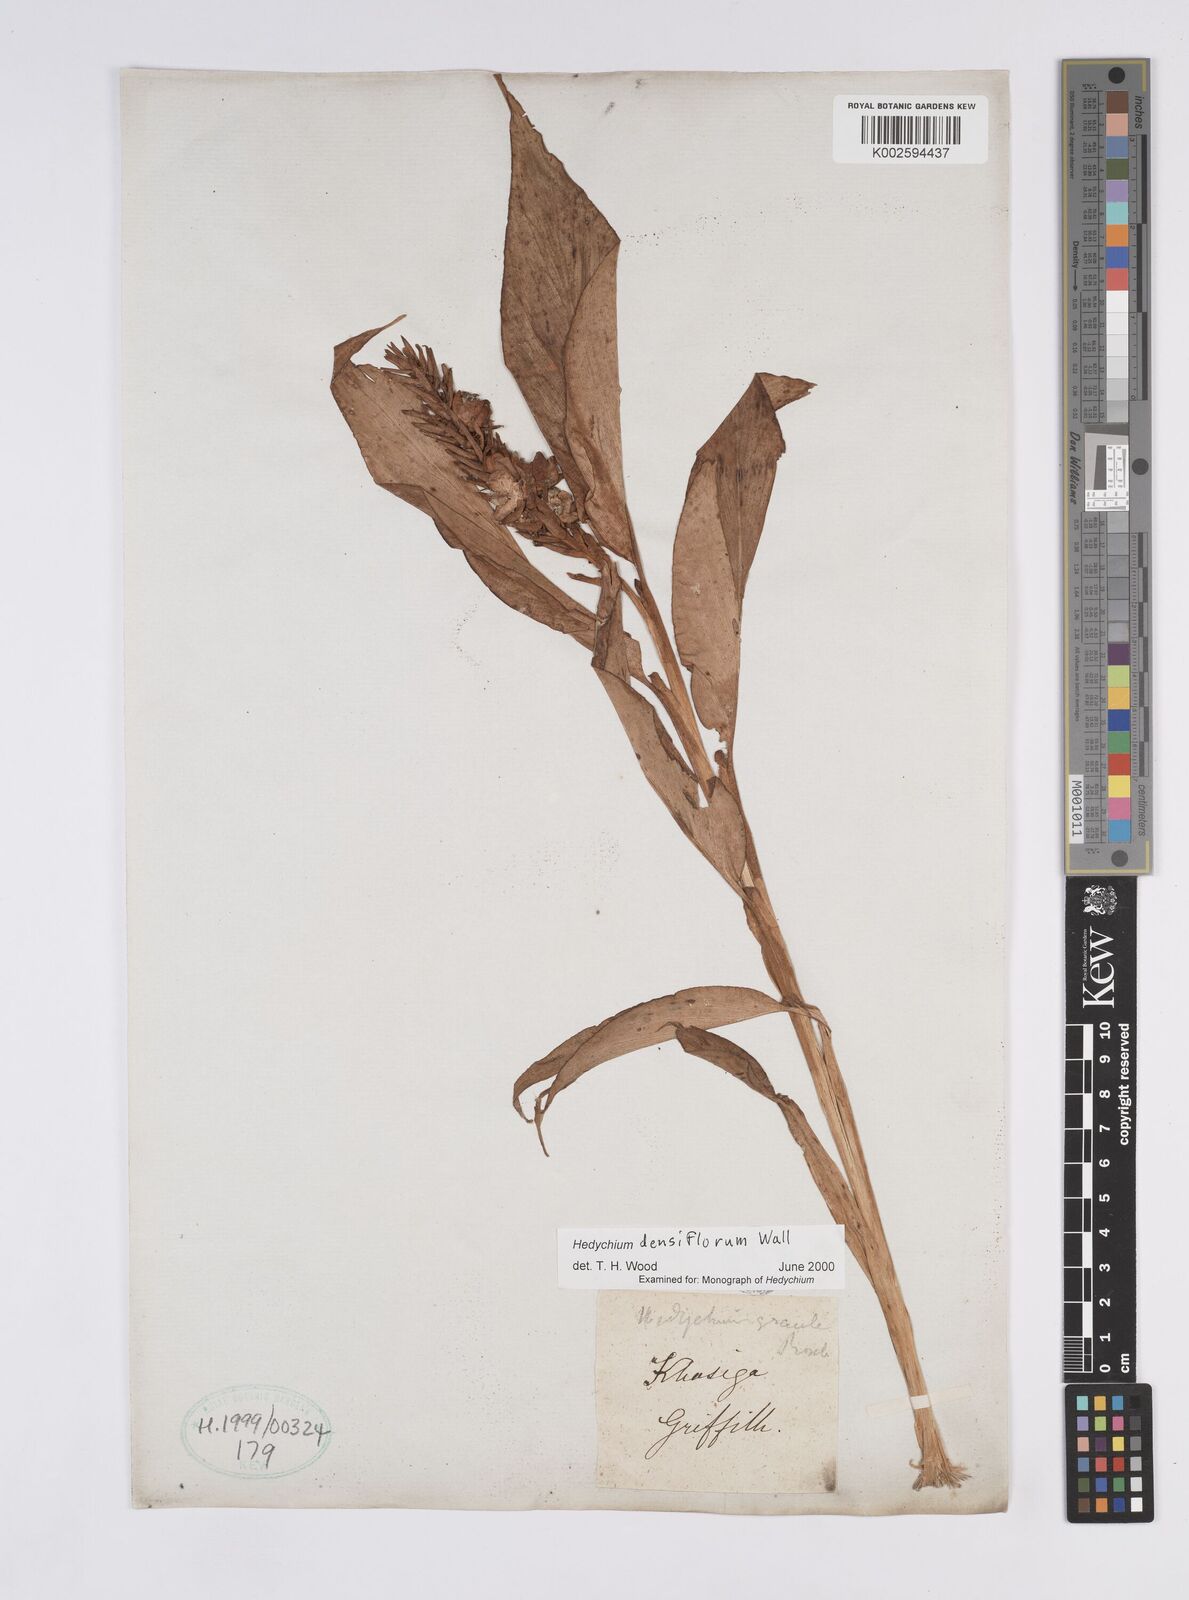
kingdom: Plantae
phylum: Tracheophyta
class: Liliopsida
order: Zingiberales
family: Zingiberaceae
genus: Hedychium
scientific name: Hedychium densiflorum
